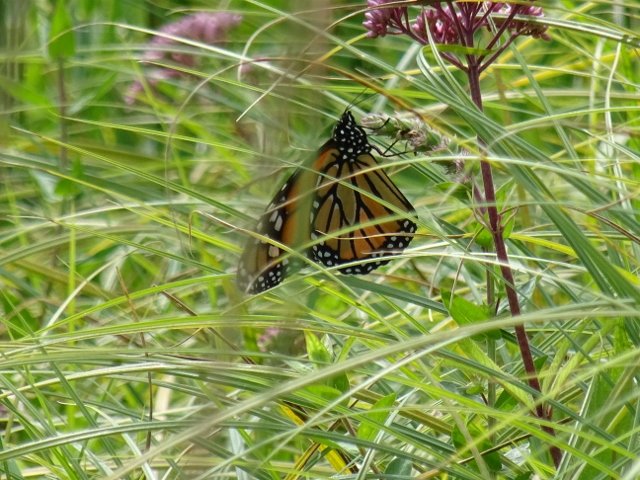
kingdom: Animalia
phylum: Arthropoda
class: Insecta
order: Lepidoptera
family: Nymphalidae
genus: Danaus
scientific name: Danaus plexippus
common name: Monarch
